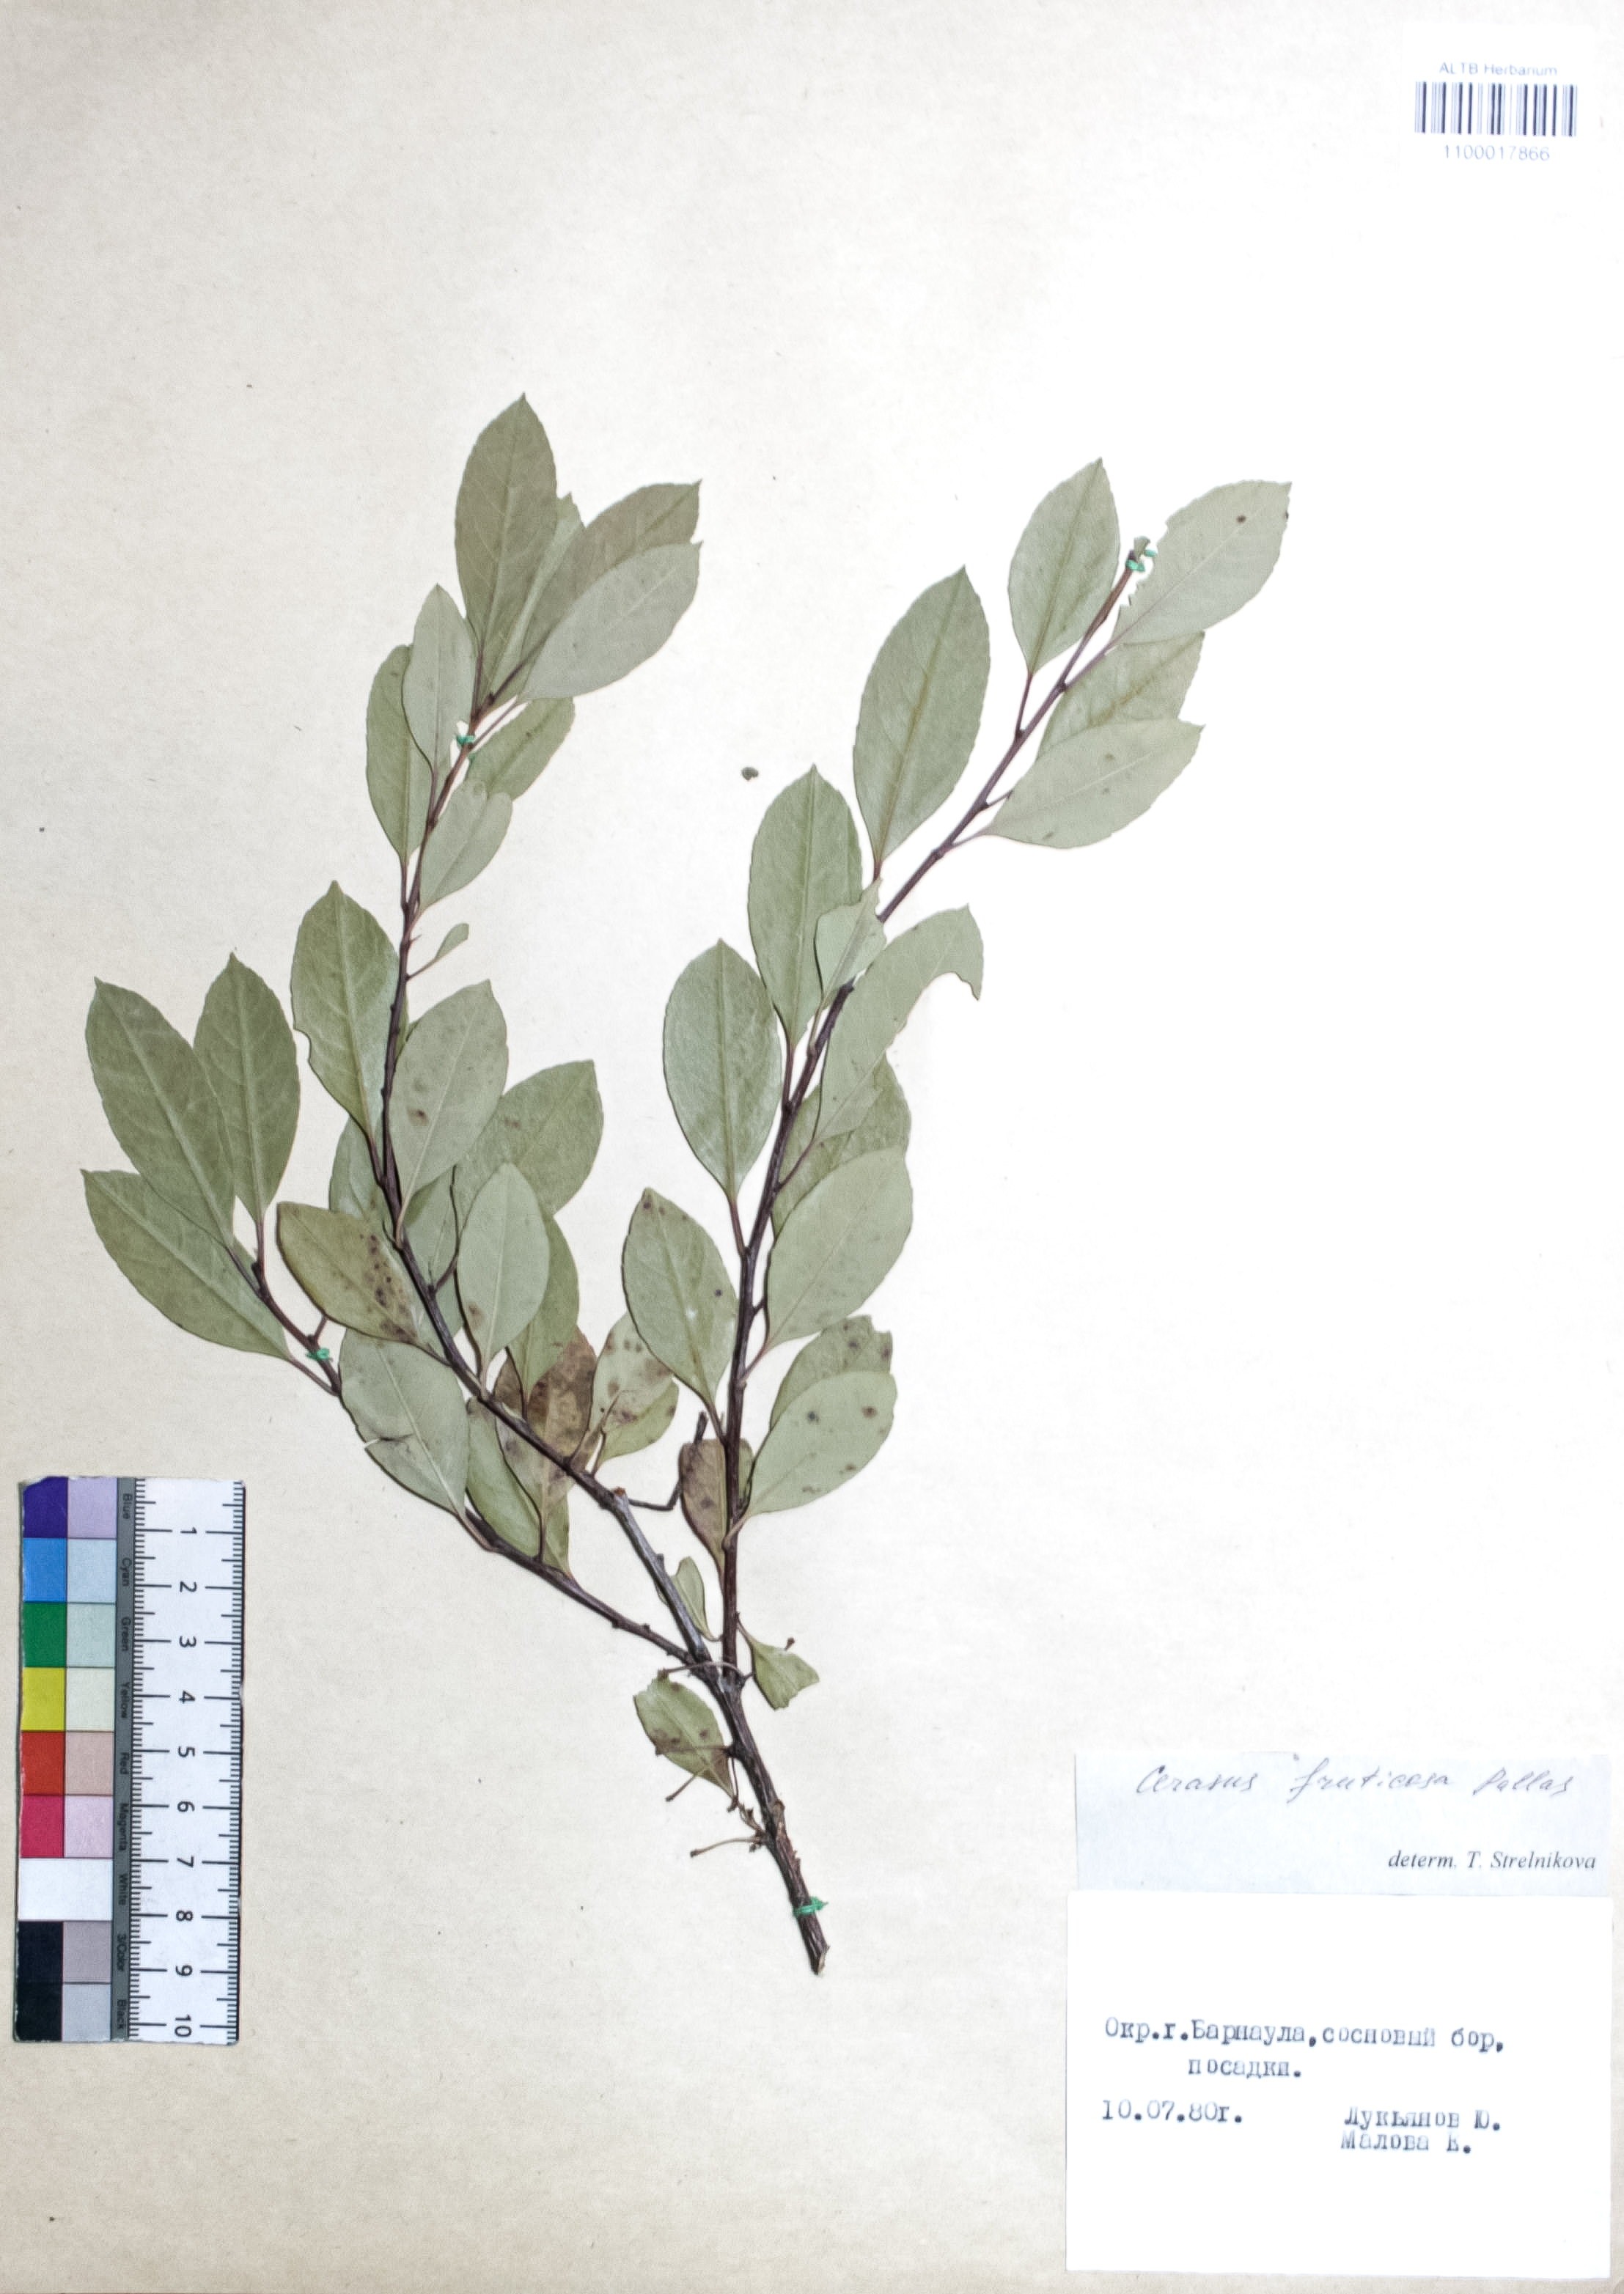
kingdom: Plantae
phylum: Tracheophyta
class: Magnoliopsida
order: Rosales
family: Rosaceae
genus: Prunus
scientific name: Prunus cerasus
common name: Morello cherry
